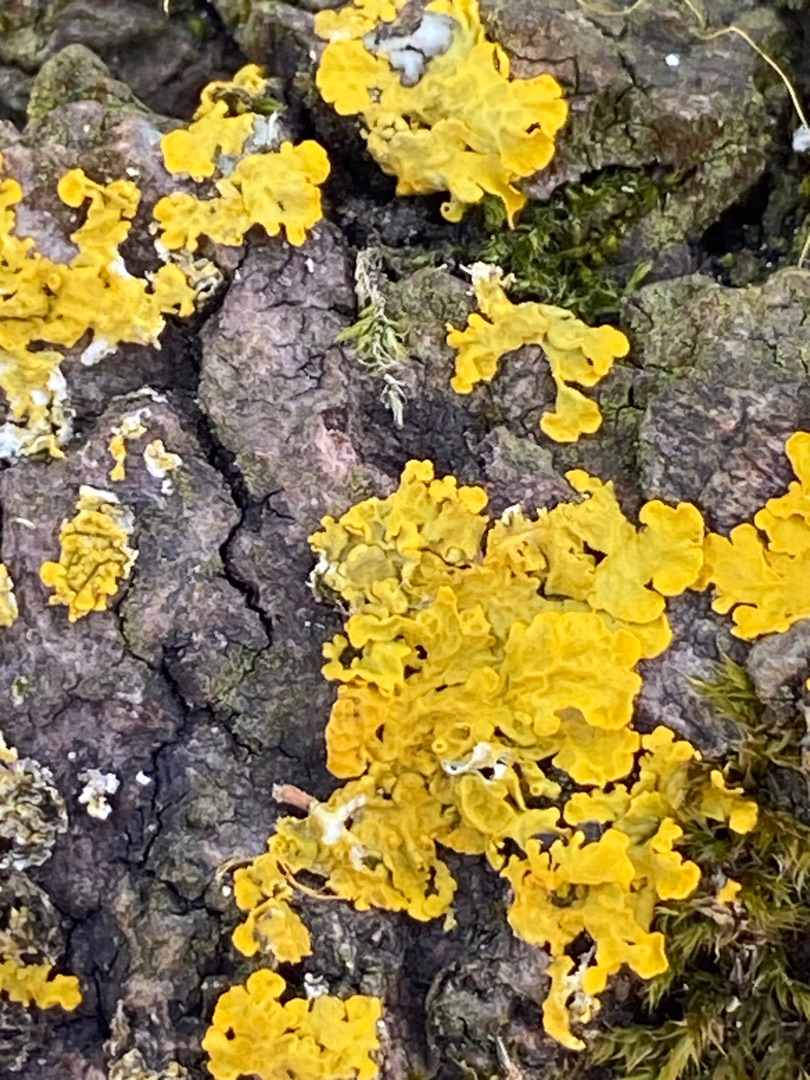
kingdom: Fungi
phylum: Ascomycota
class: Lecanoromycetes
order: Teloschistales
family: Teloschistaceae
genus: Xanthoria
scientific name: Xanthoria parietina
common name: Almindelig væggelav
